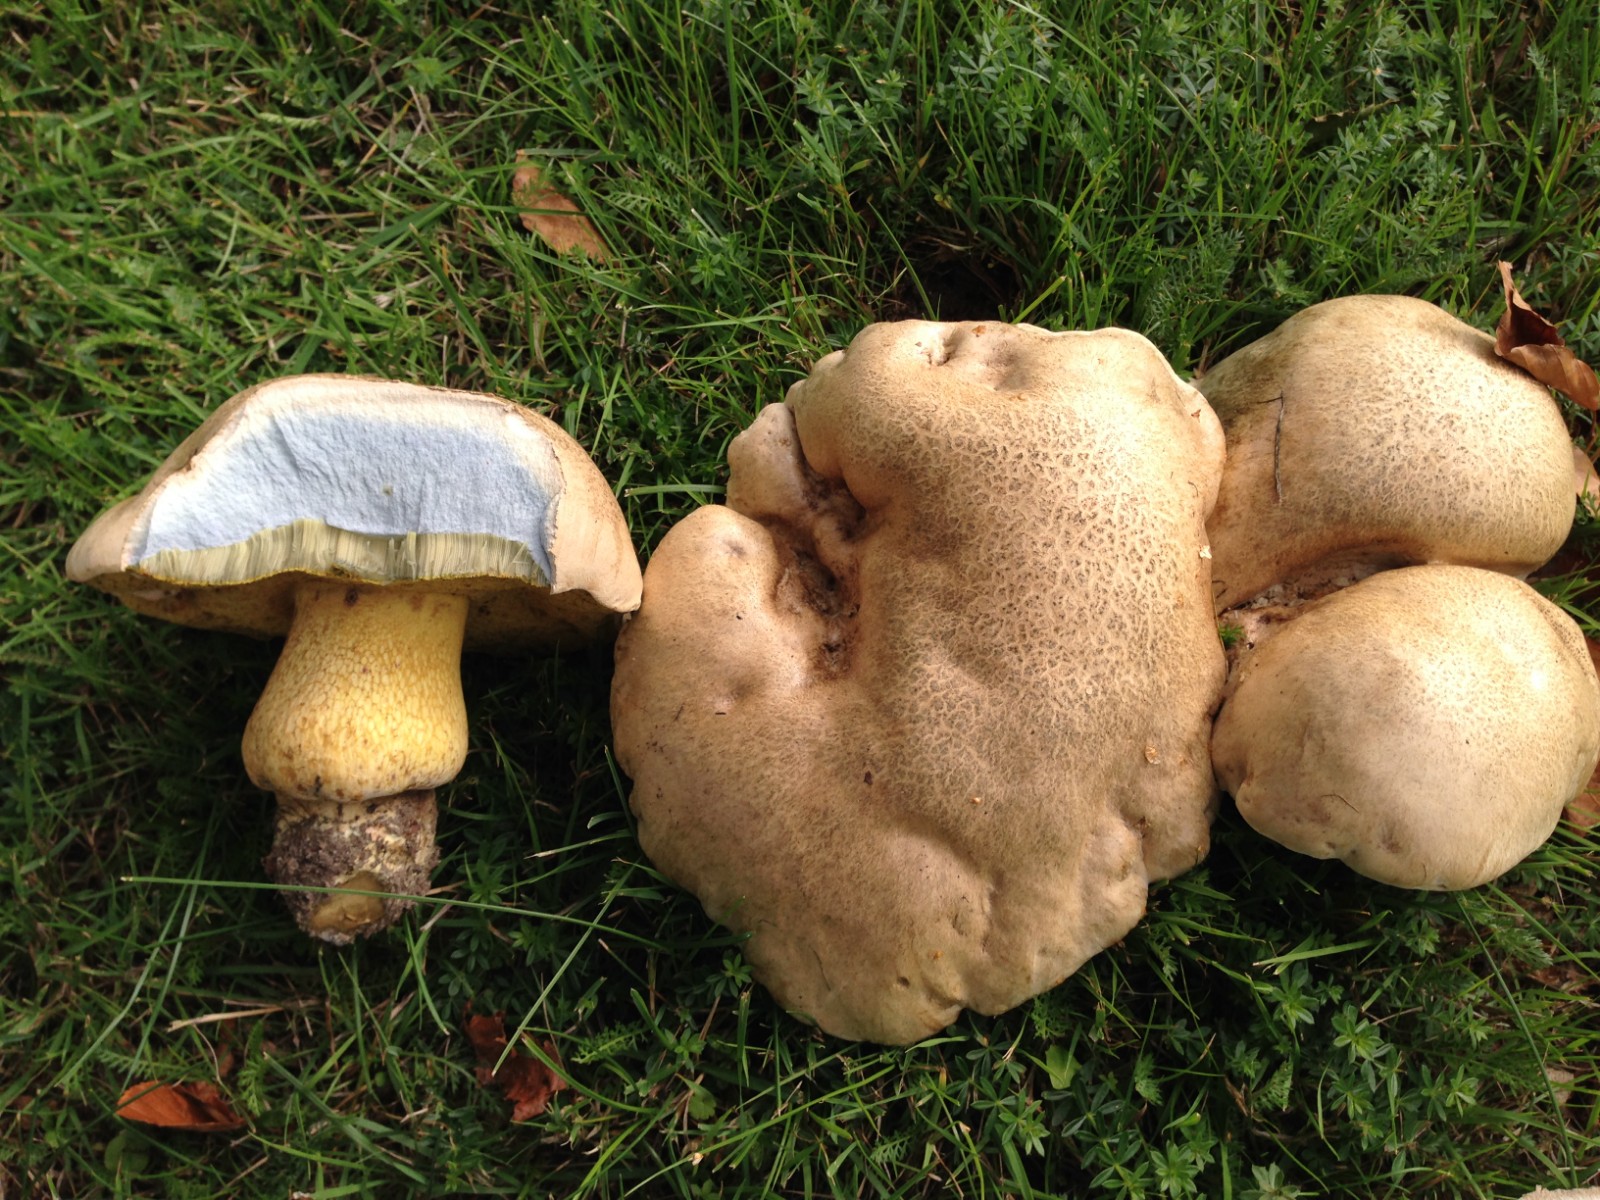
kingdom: Fungi
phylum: Basidiomycota
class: Agaricomycetes
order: Boletales
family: Boletaceae
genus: Caloboletus
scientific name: Caloboletus radicans
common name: rod-rørhat
